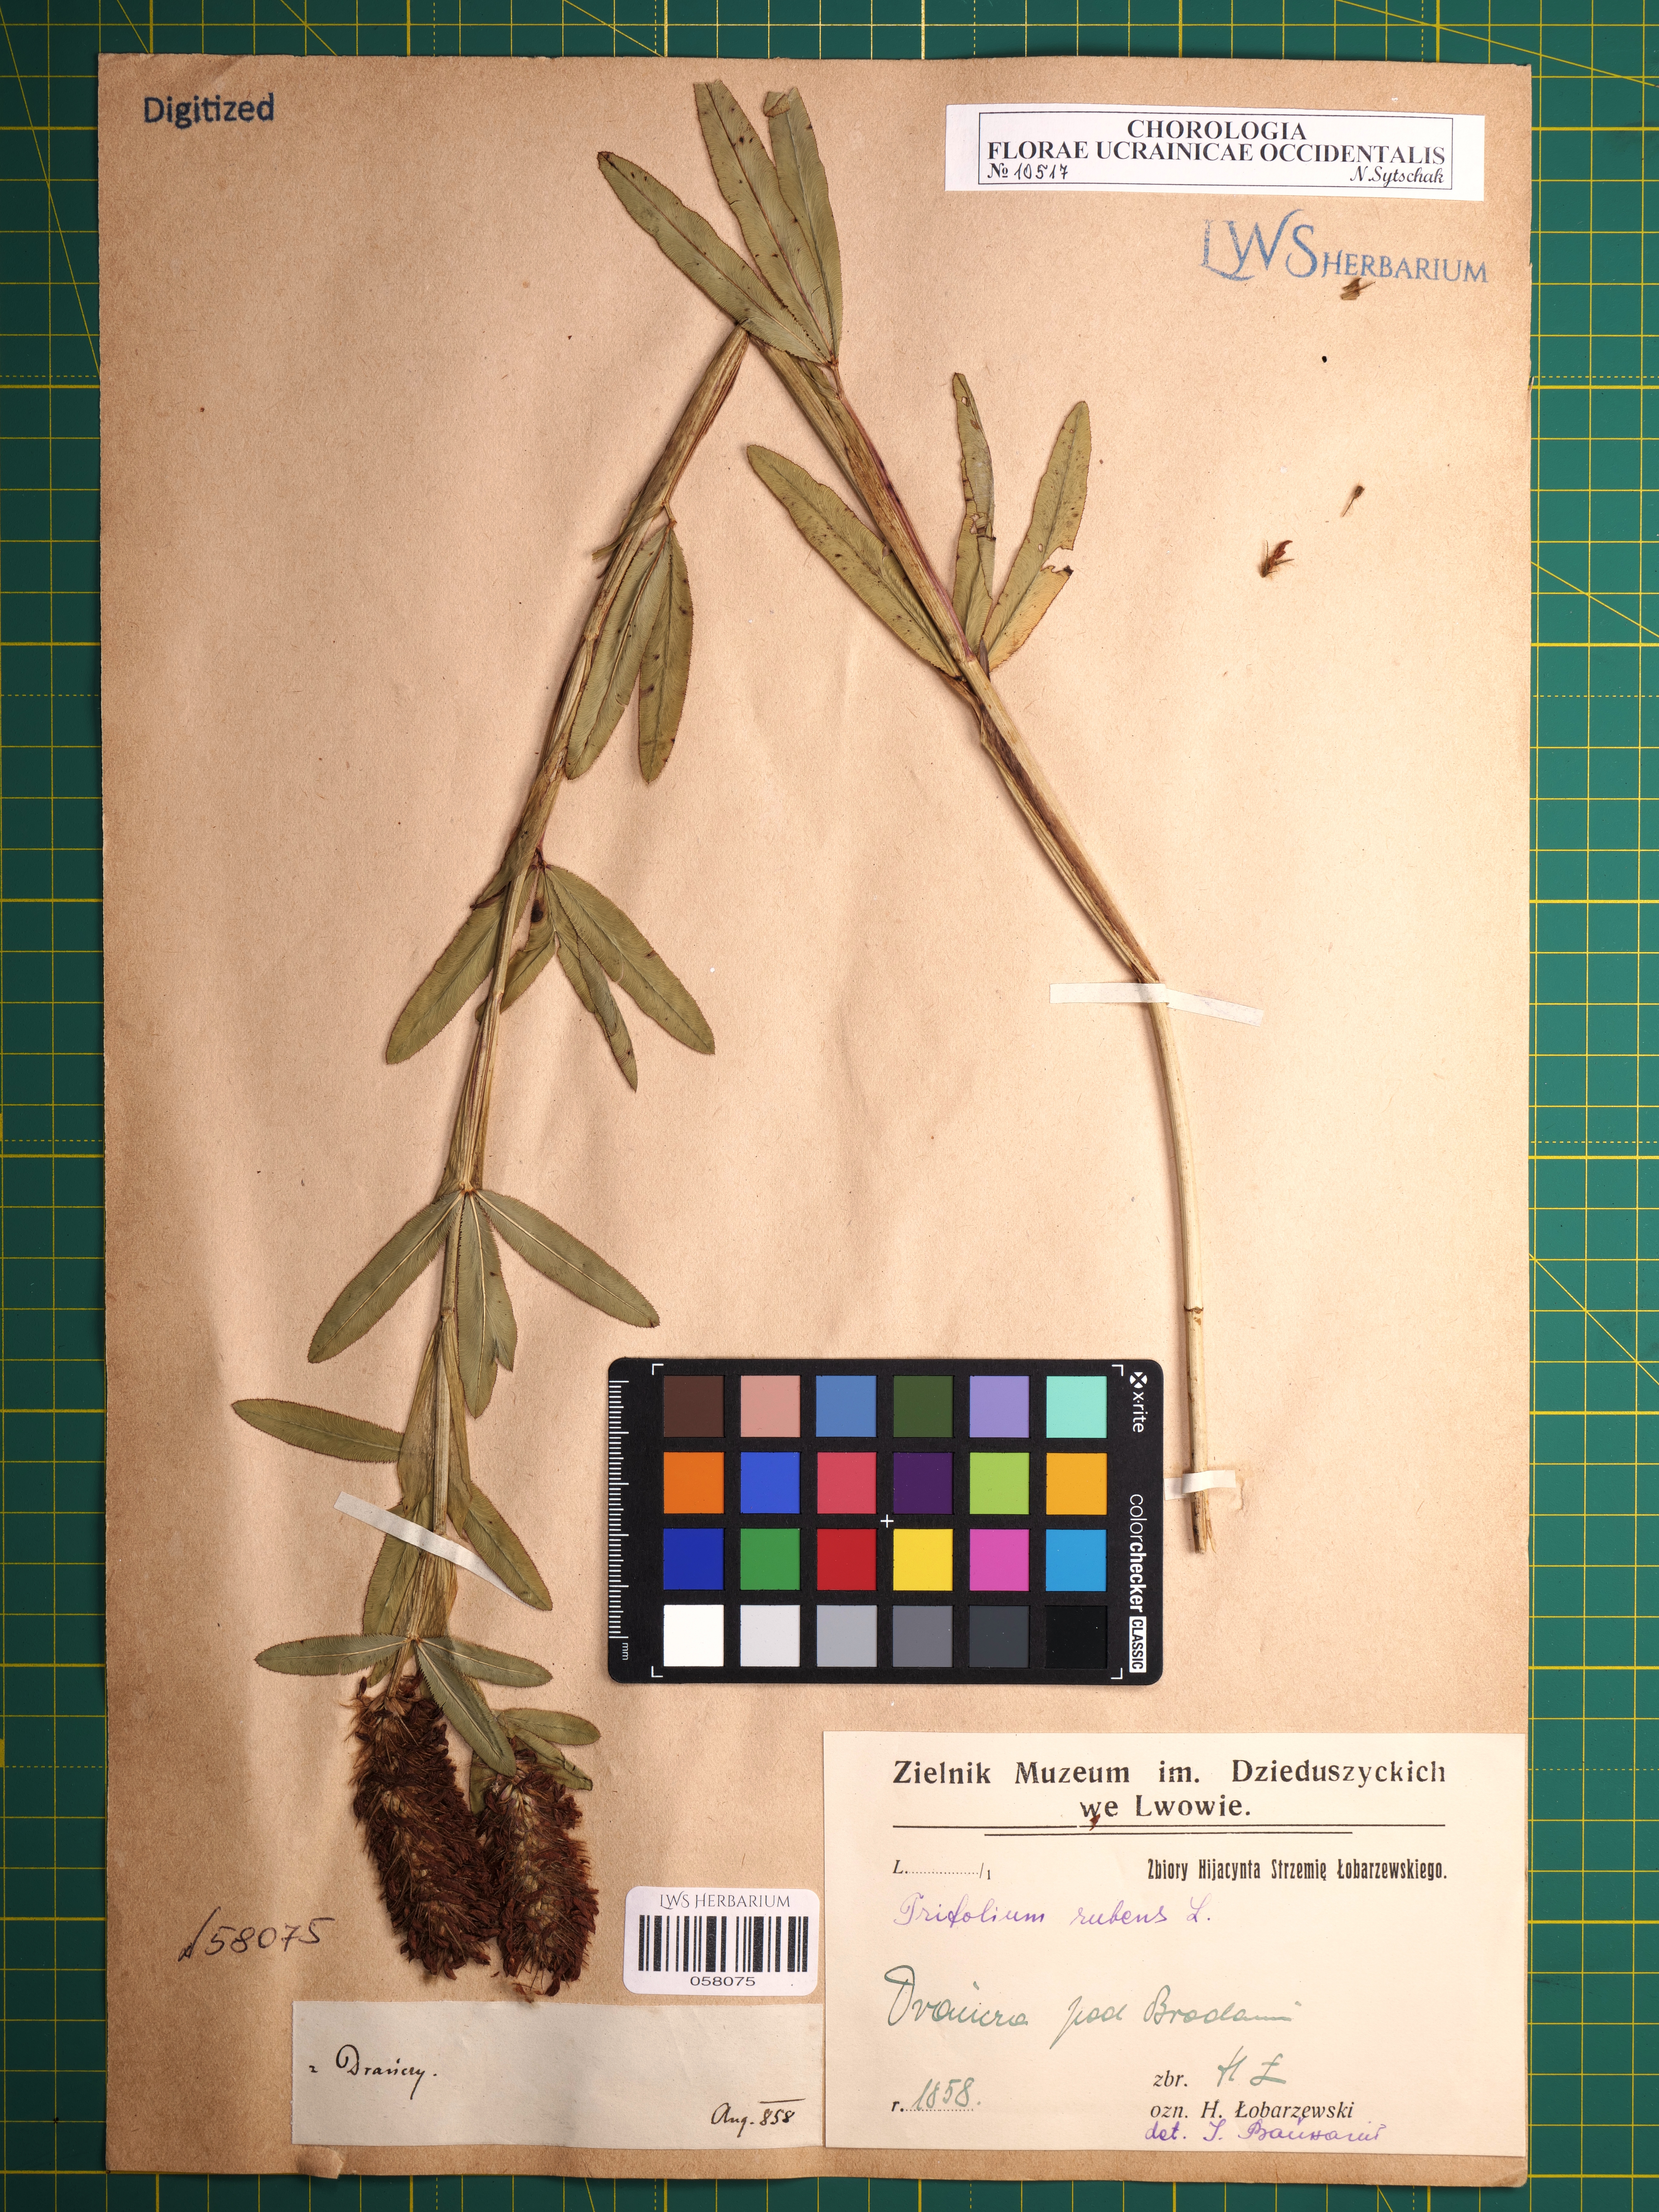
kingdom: Plantae
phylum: Tracheophyta
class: Magnoliopsida
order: Fabales
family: Fabaceae
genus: Trifolium
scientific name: Trifolium rubens
